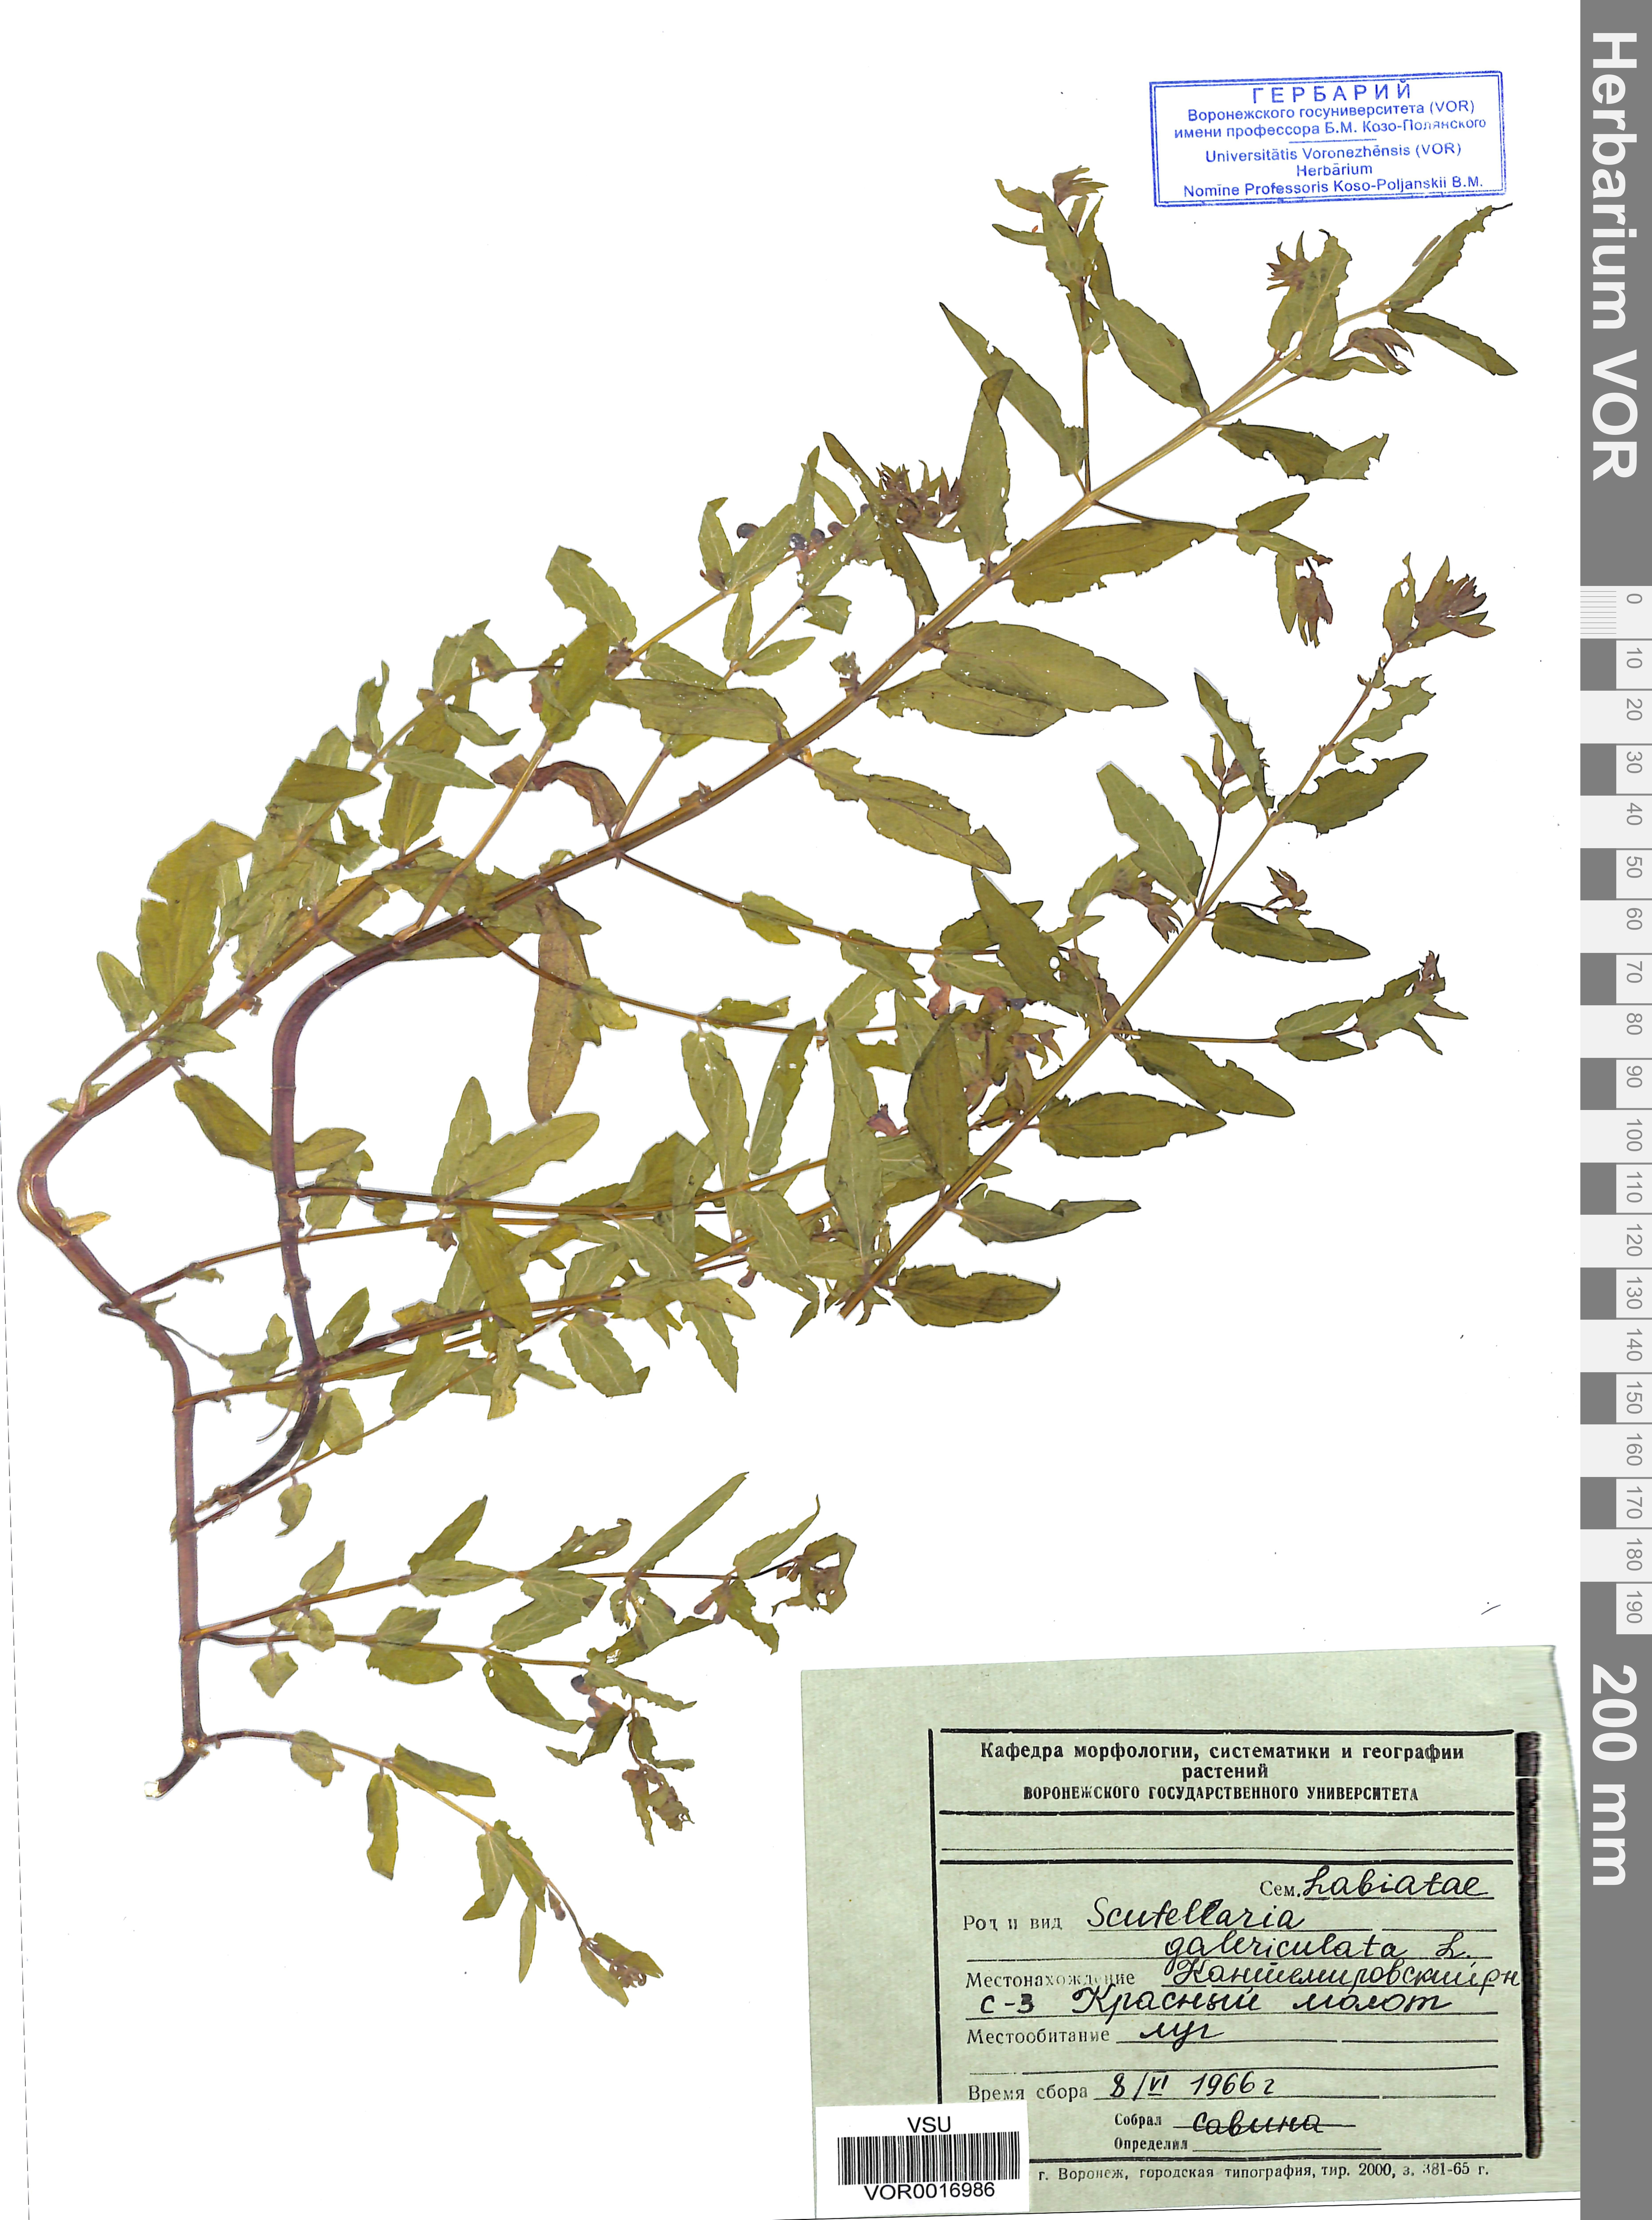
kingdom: Plantae
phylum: Tracheophyta
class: Magnoliopsida
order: Lamiales
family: Lamiaceae
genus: Scutellaria
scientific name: Scutellaria galericulata
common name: Skullcap
